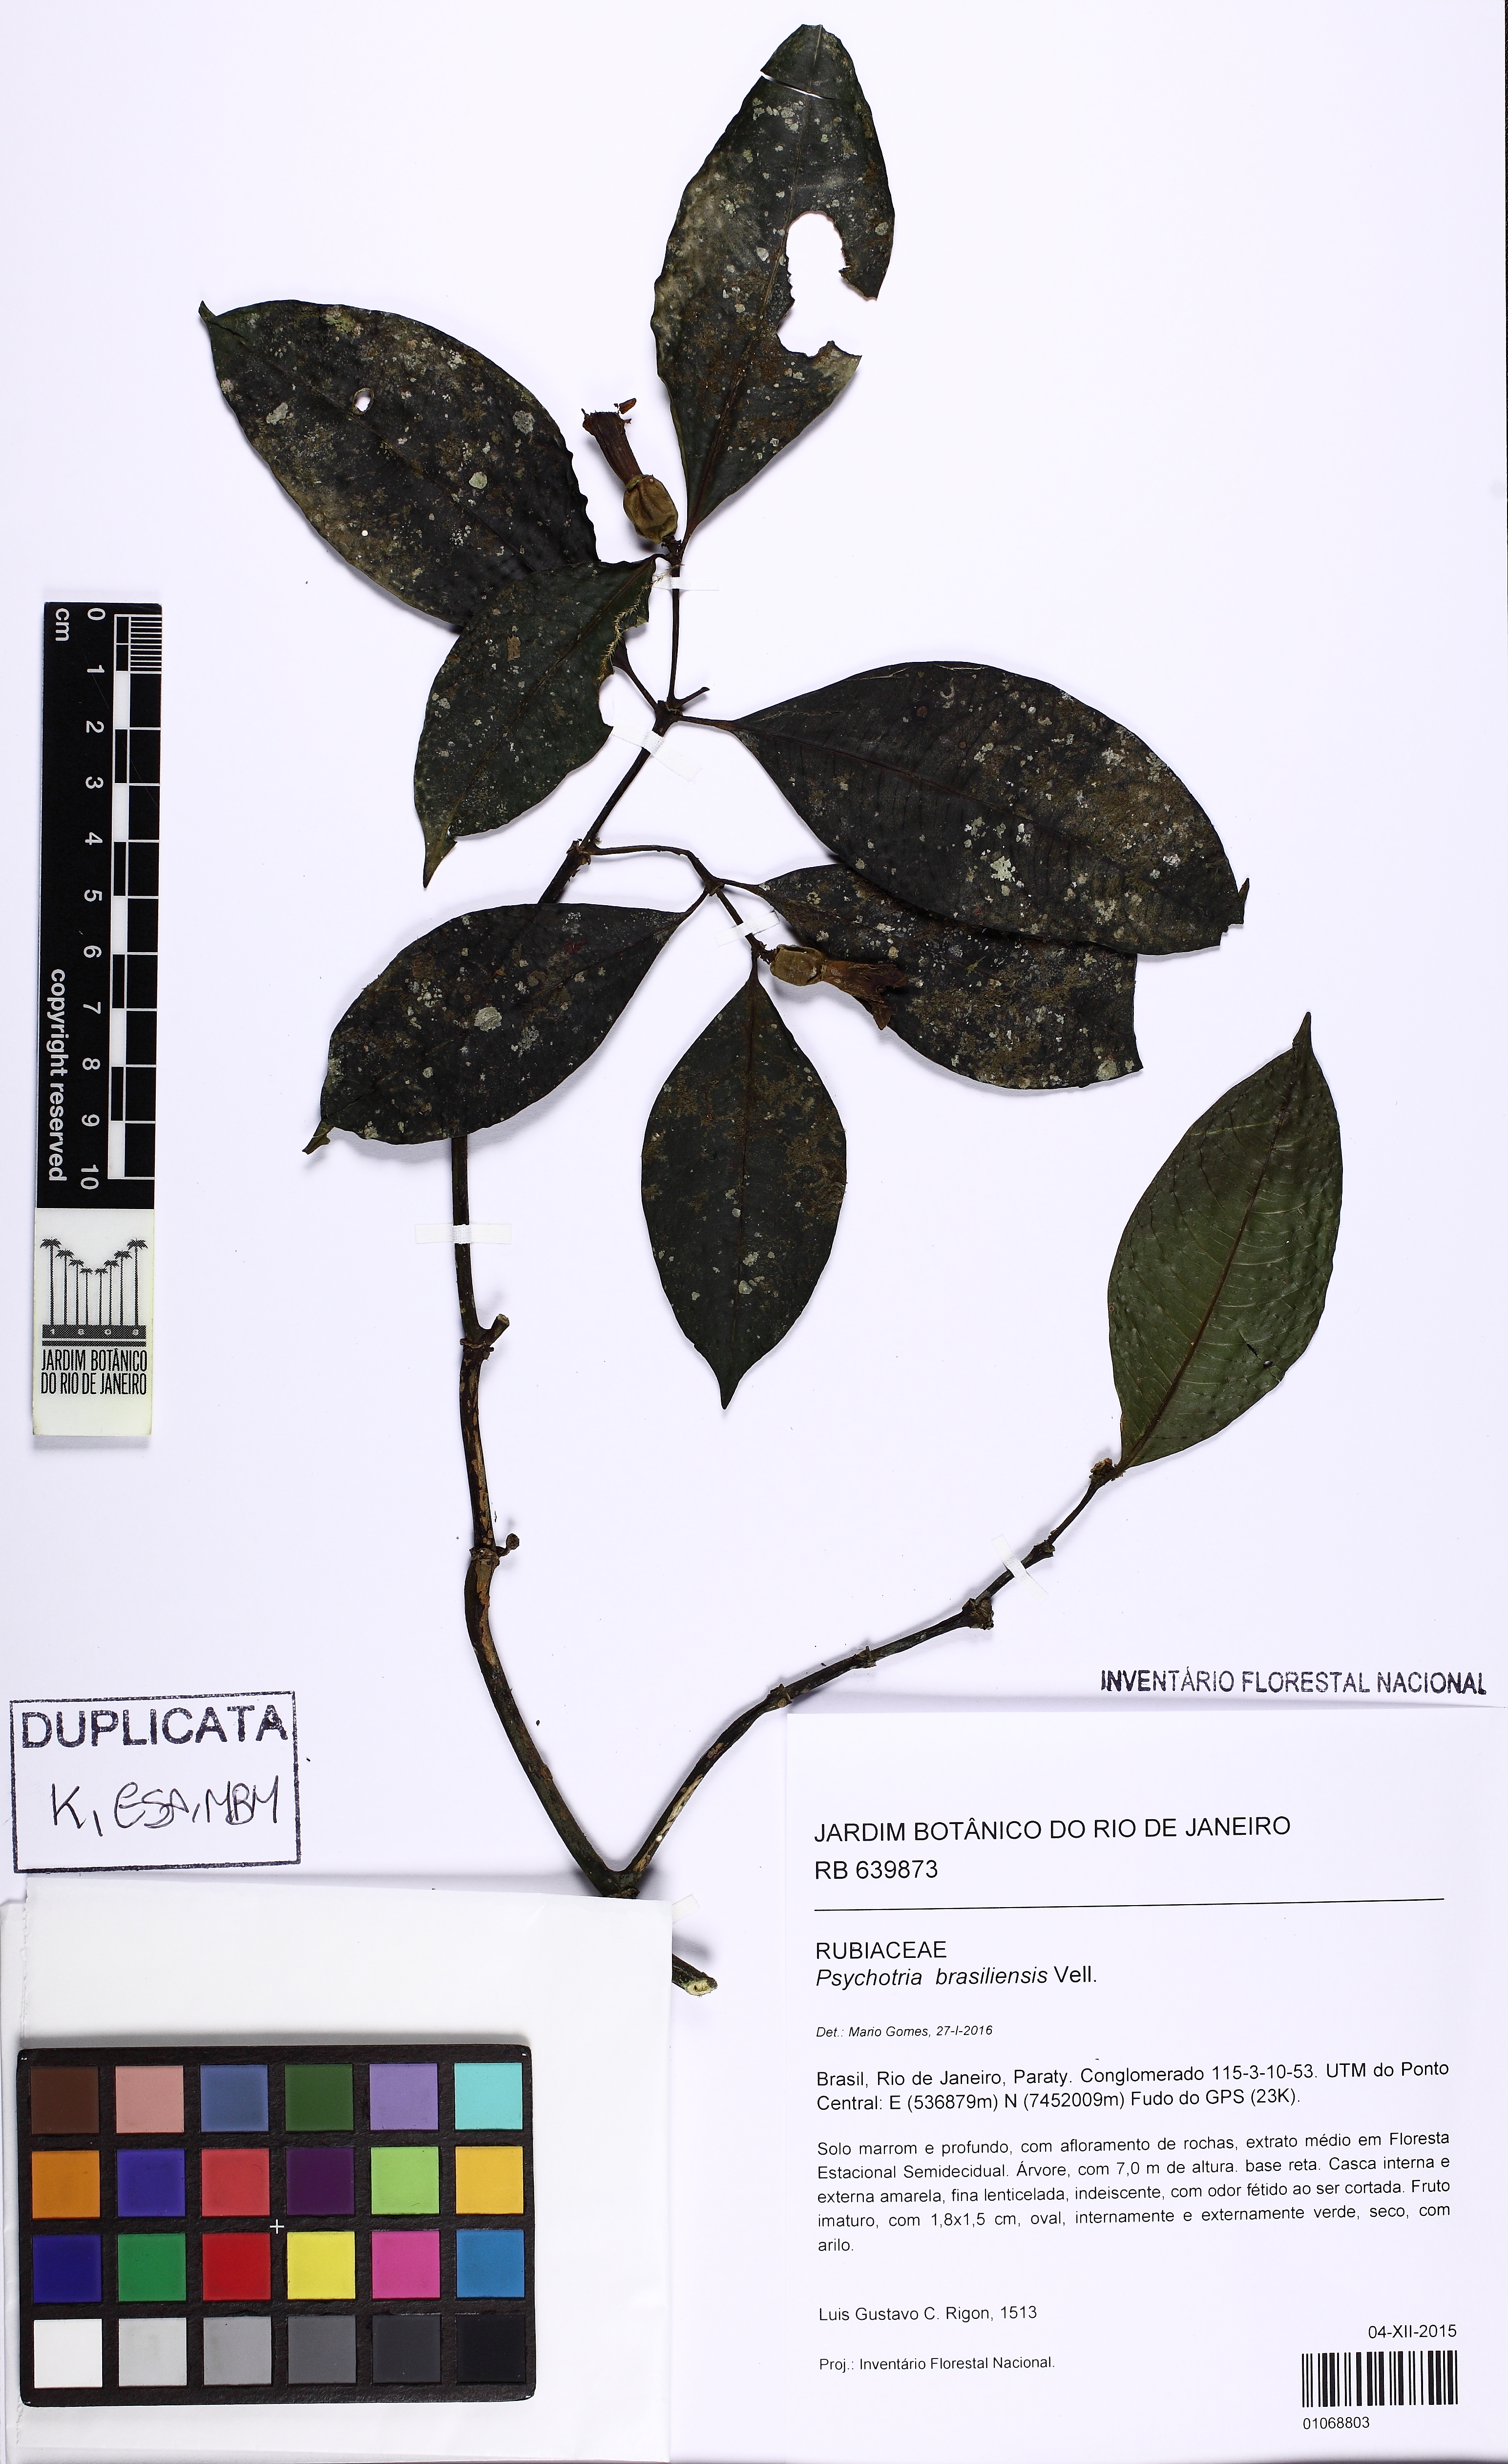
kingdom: Plantae
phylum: Tracheophyta
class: Magnoliopsida
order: Gentianales
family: Rubiaceae
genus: Psychotria
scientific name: Psychotria nuda
